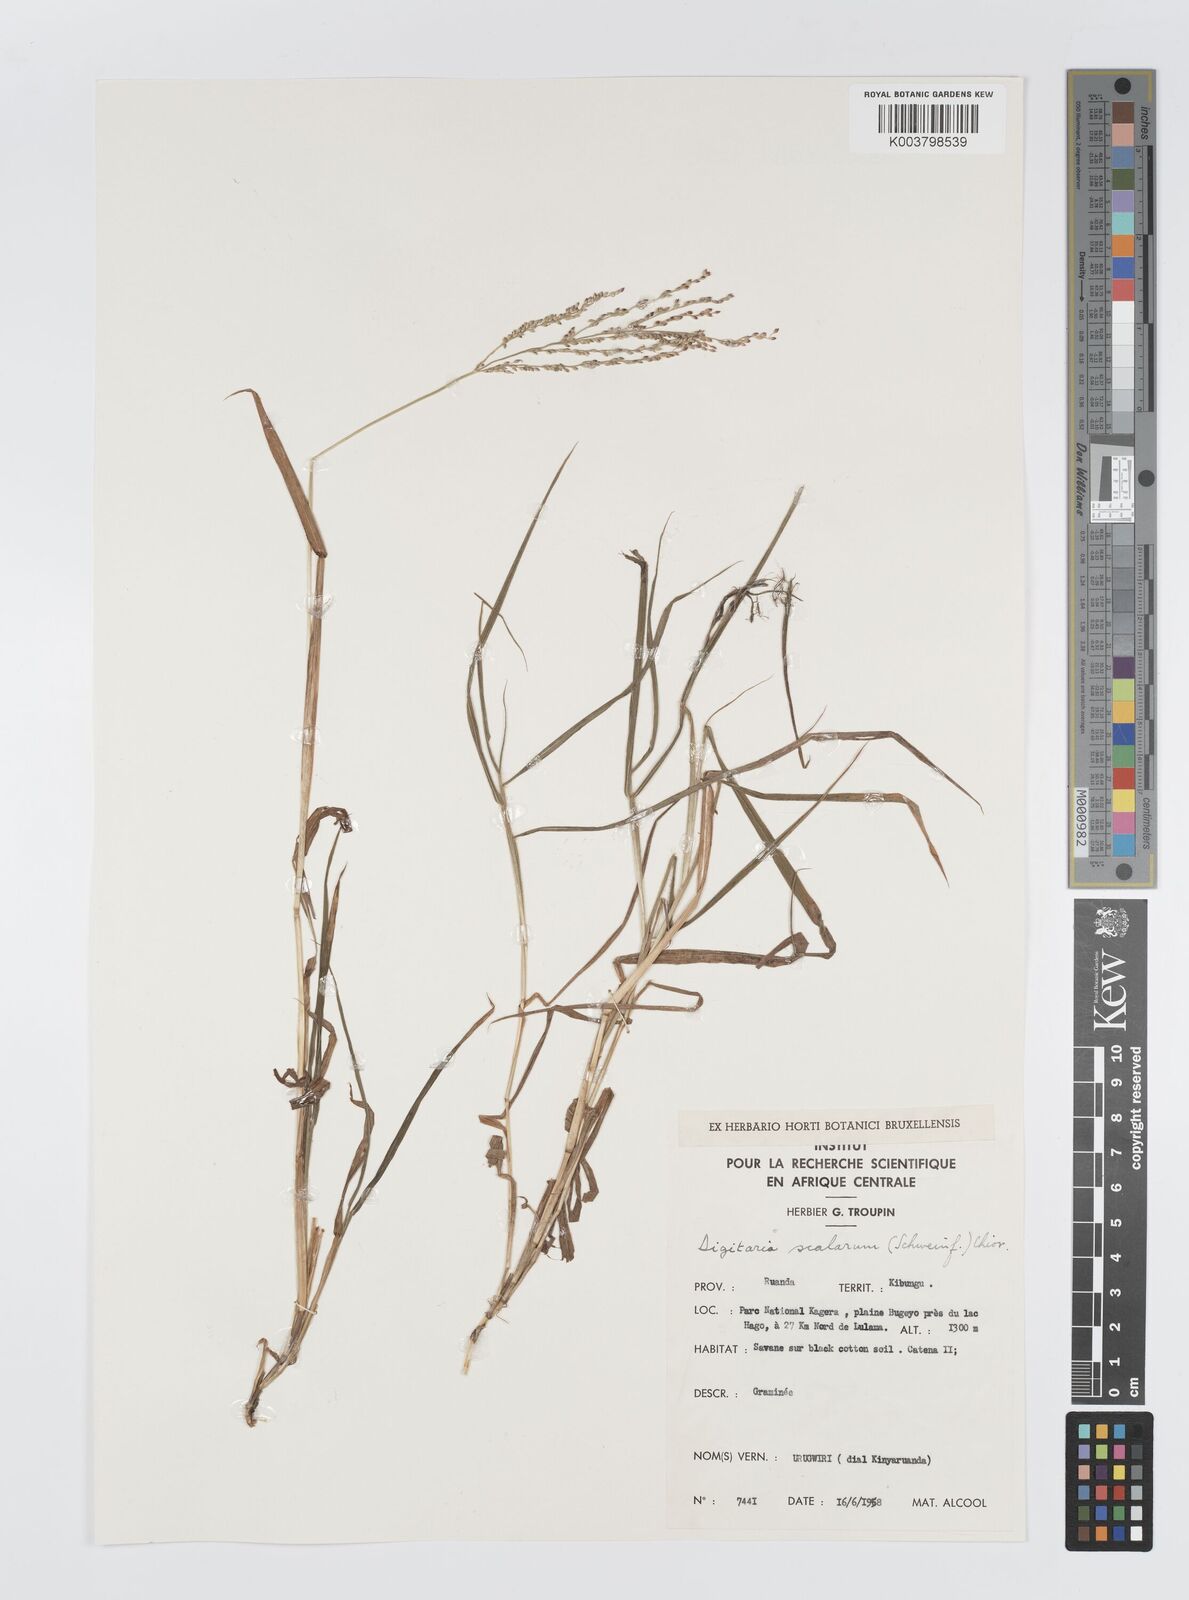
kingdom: Plantae
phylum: Tracheophyta
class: Liliopsida
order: Poales
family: Poaceae
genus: Digitaria
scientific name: Digitaria abyssinica
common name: African couchgrass
